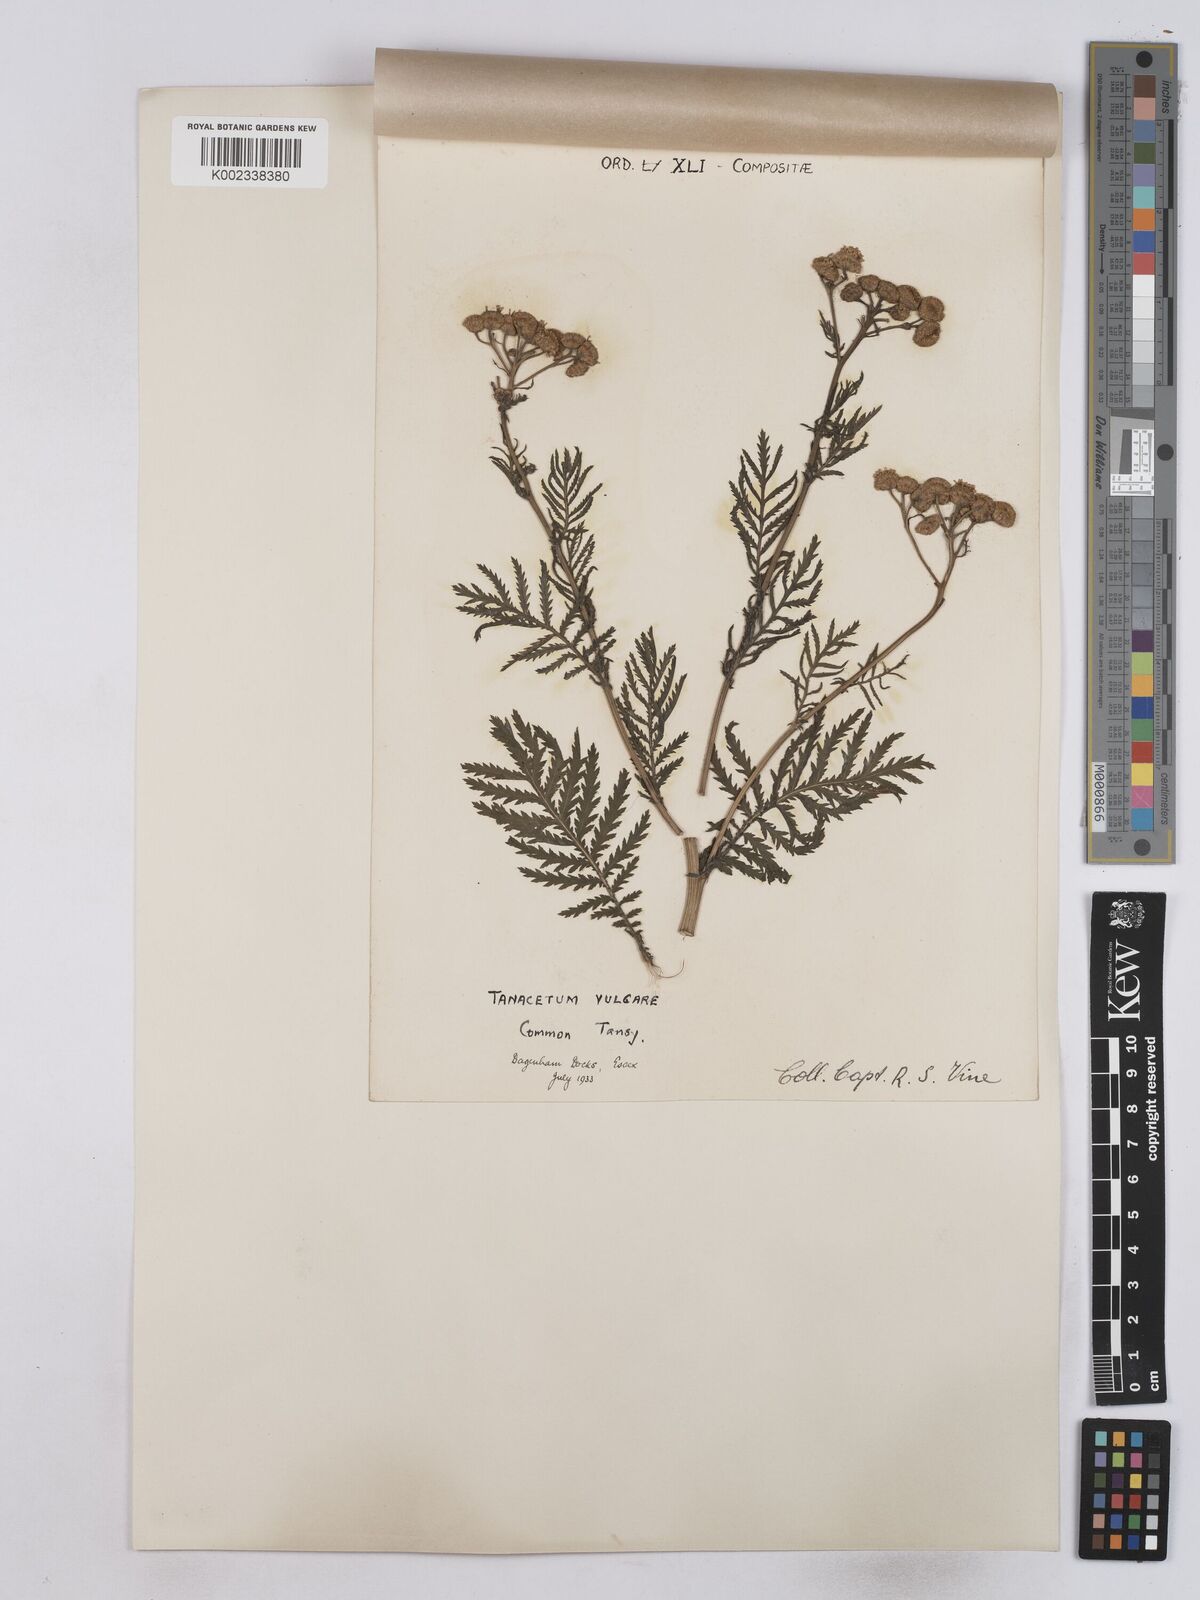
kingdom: Plantae
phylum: Tracheophyta
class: Magnoliopsida
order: Asterales
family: Asteraceae
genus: Tanacetum
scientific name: Tanacetum vulgare
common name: Common tansy
